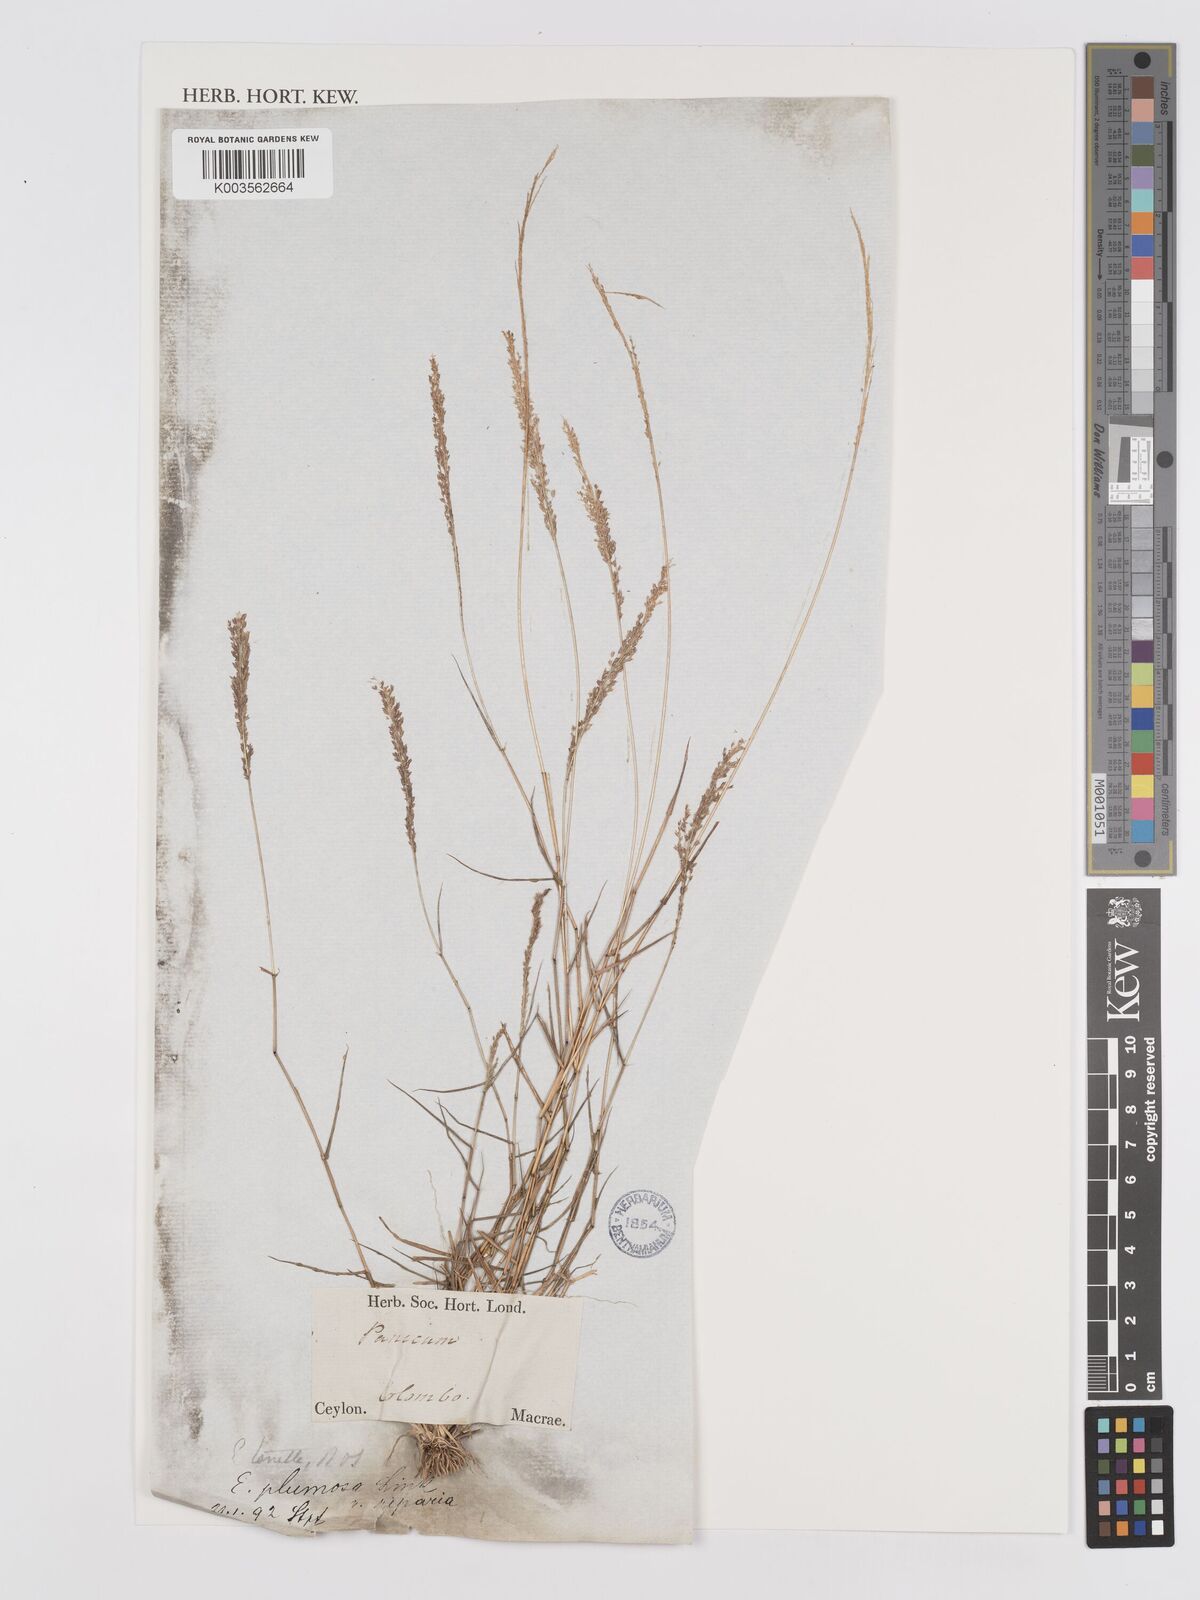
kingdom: Plantae
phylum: Tracheophyta
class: Liliopsida
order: Poales
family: Poaceae
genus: Eragrostis
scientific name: Eragrostis tenella
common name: Japanese lovegrass
